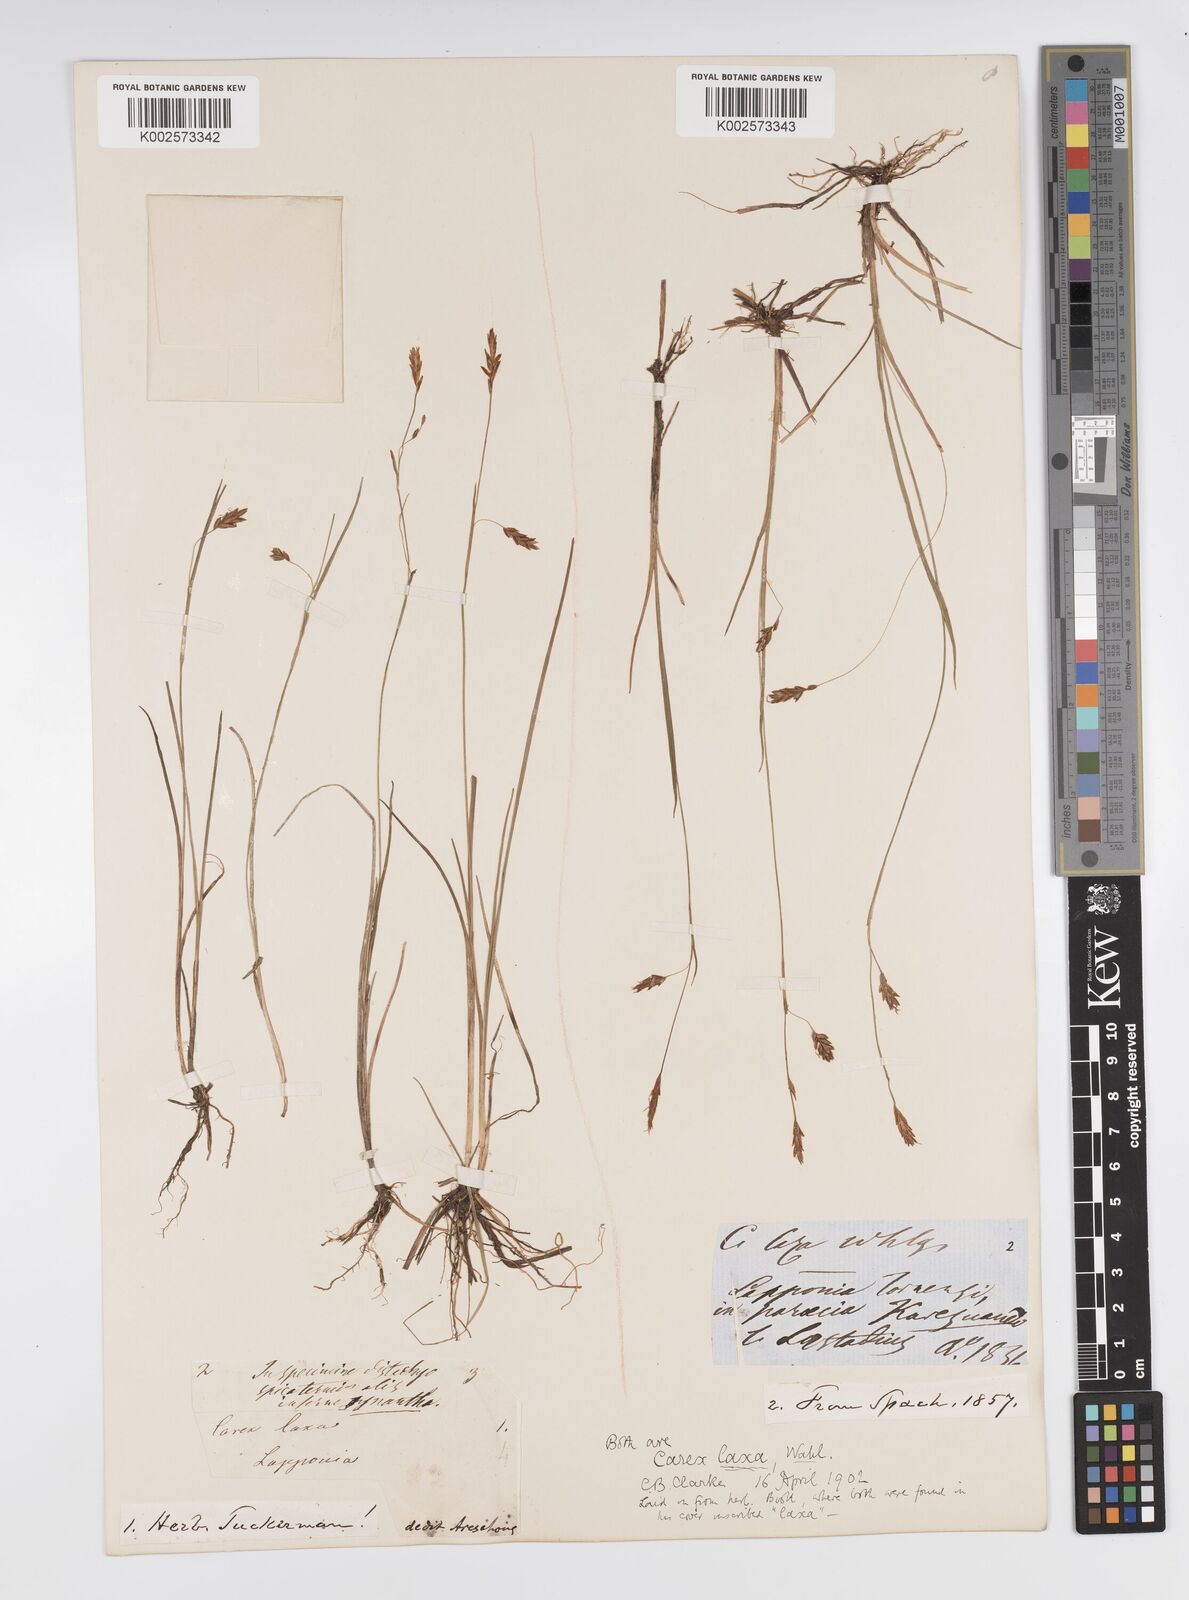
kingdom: Plantae
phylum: Tracheophyta
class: Liliopsida
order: Poales
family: Cyperaceae
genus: Carex
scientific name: Carex laxa
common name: Weak sedge
